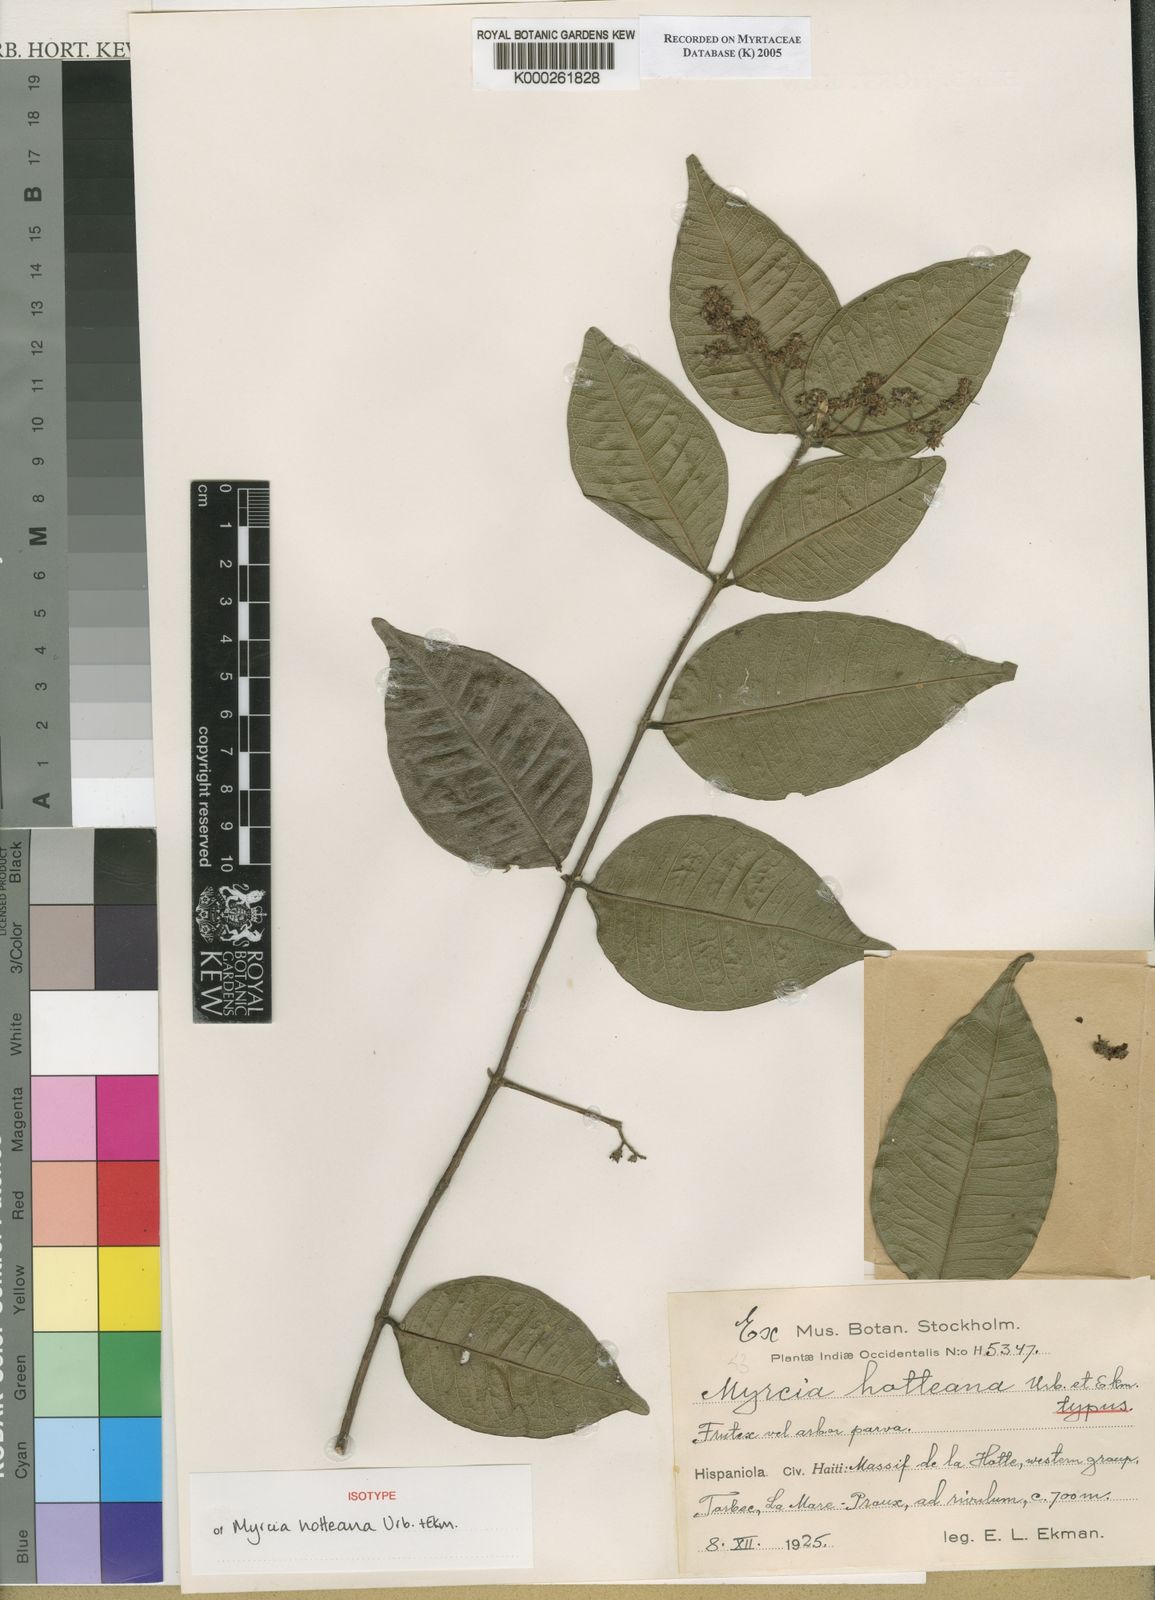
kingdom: Plantae
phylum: Tracheophyta
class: Magnoliopsida
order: Myrtales
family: Myrtaceae
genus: Myrcia
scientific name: Myrcia hotteana
